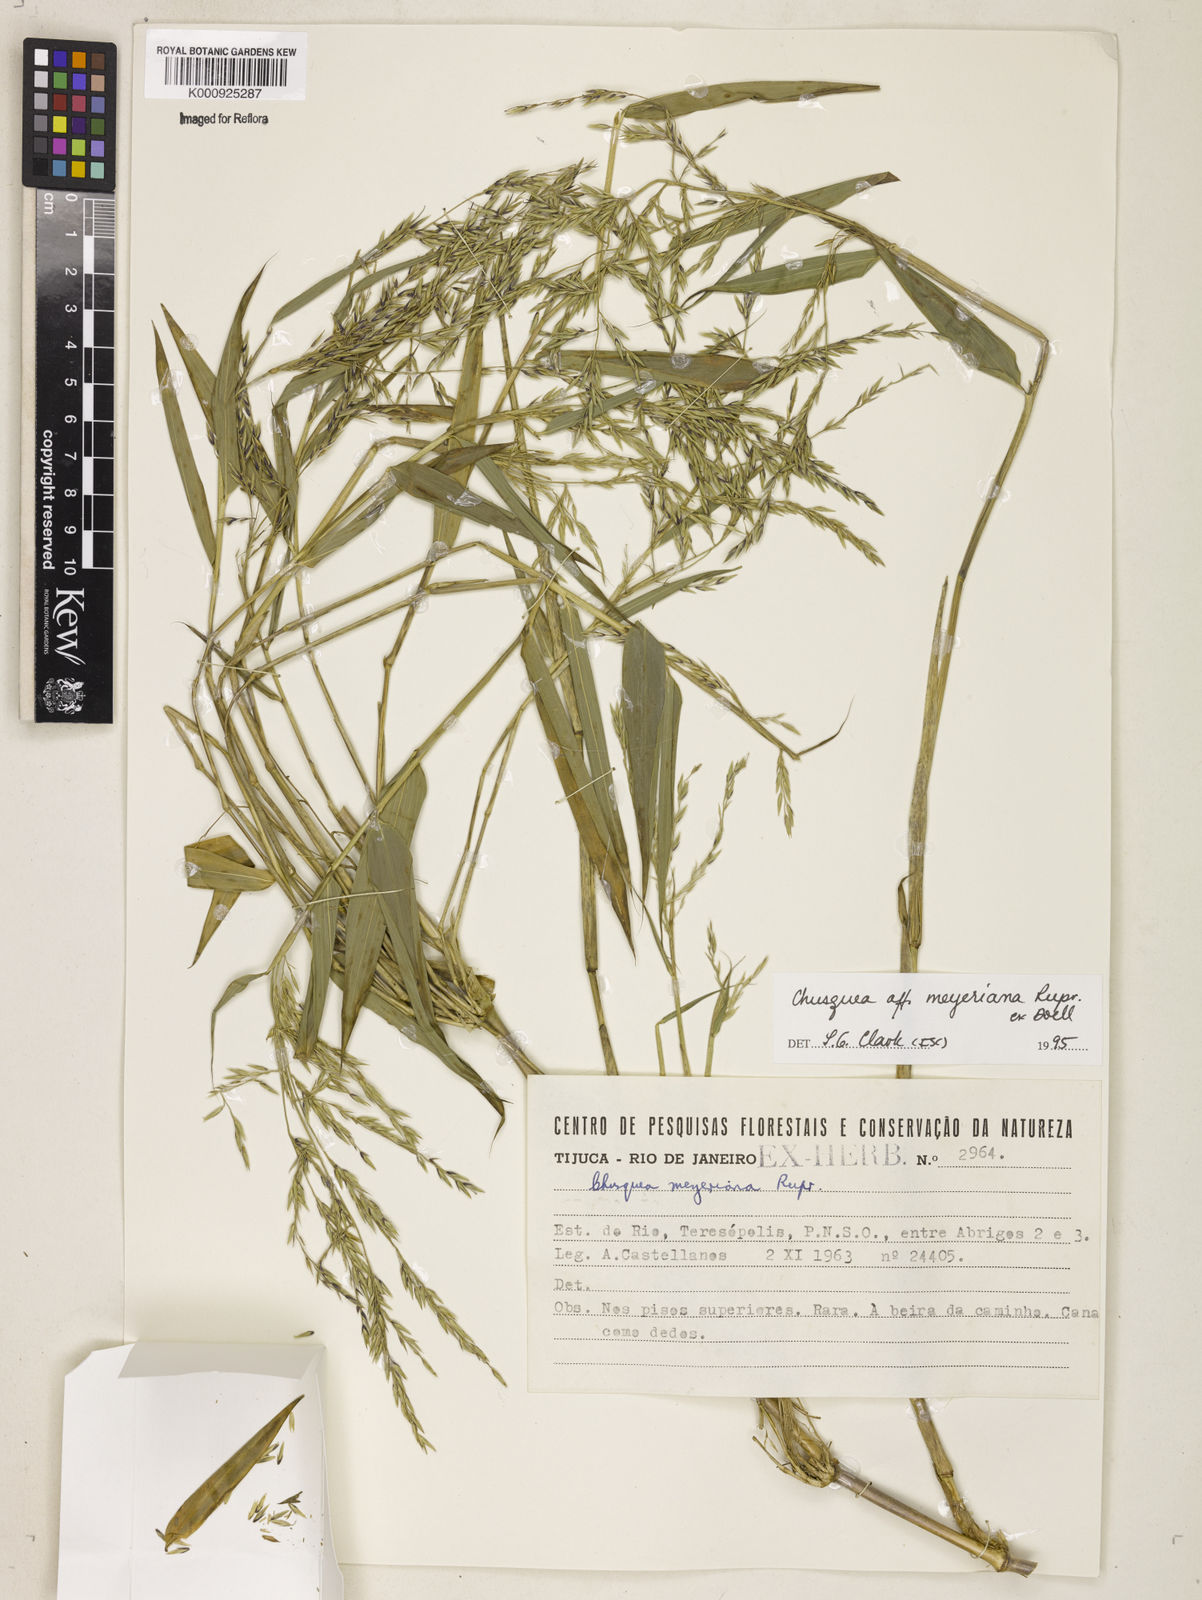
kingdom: Plantae
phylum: Tracheophyta
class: Liliopsida
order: Poales
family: Poaceae
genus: Chusquea
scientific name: Chusquea
